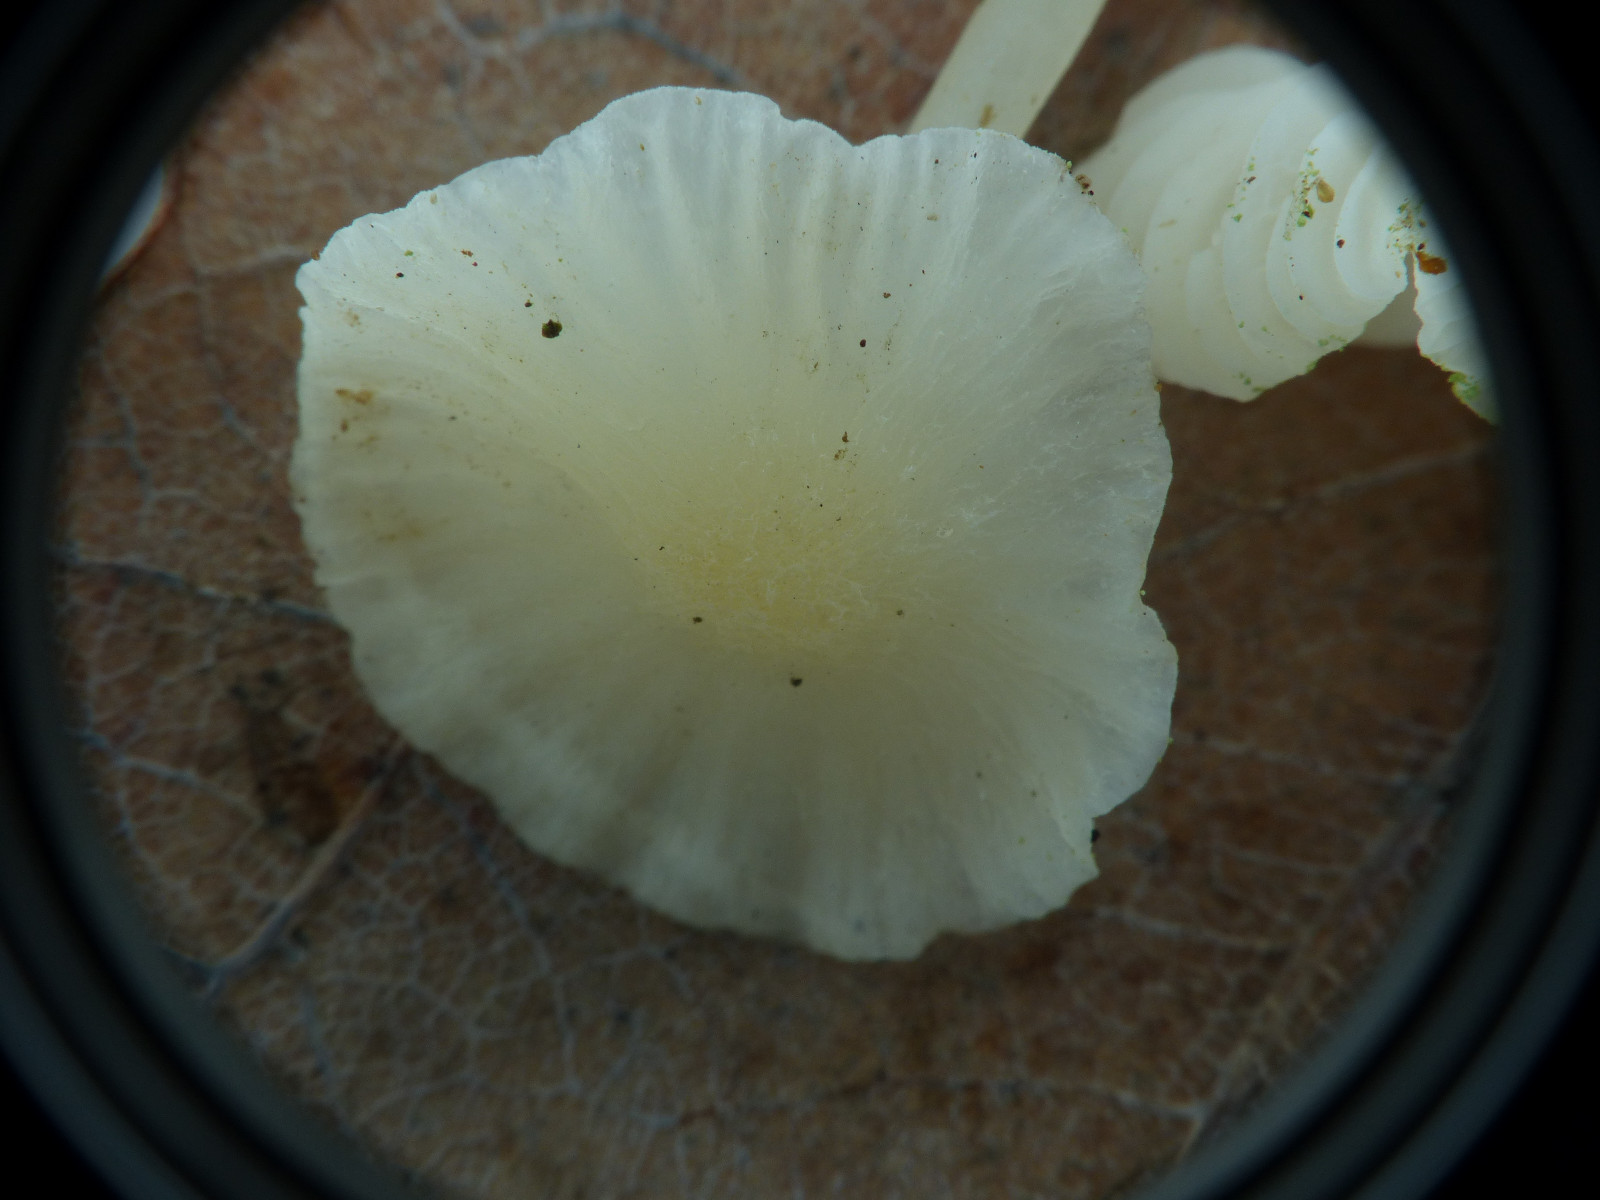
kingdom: Fungi
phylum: Basidiomycota
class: Agaricomycetes
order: Agaricales
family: Mycenaceae
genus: Mycena
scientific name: Mycena
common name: huesvamp
